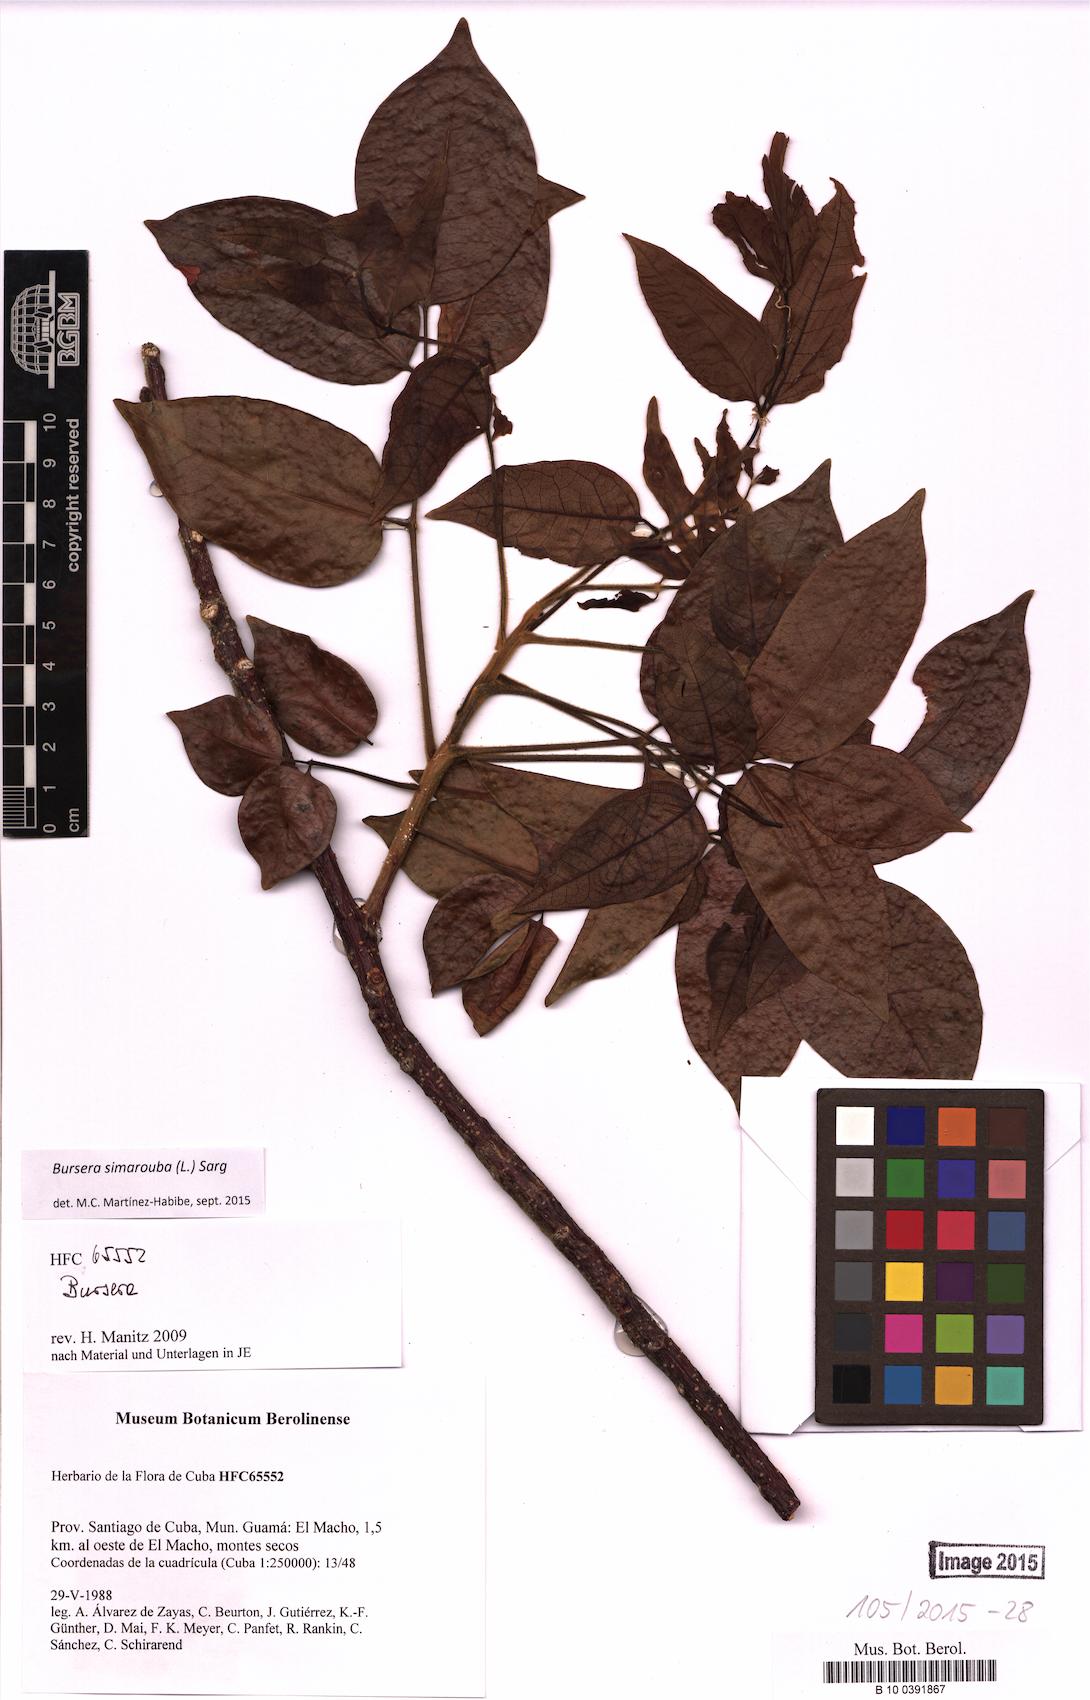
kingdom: Plantae
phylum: Tracheophyta
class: Magnoliopsida
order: Sapindales
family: Burseraceae
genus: Bursera
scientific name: Bursera simaruba
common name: Turpentine tree
